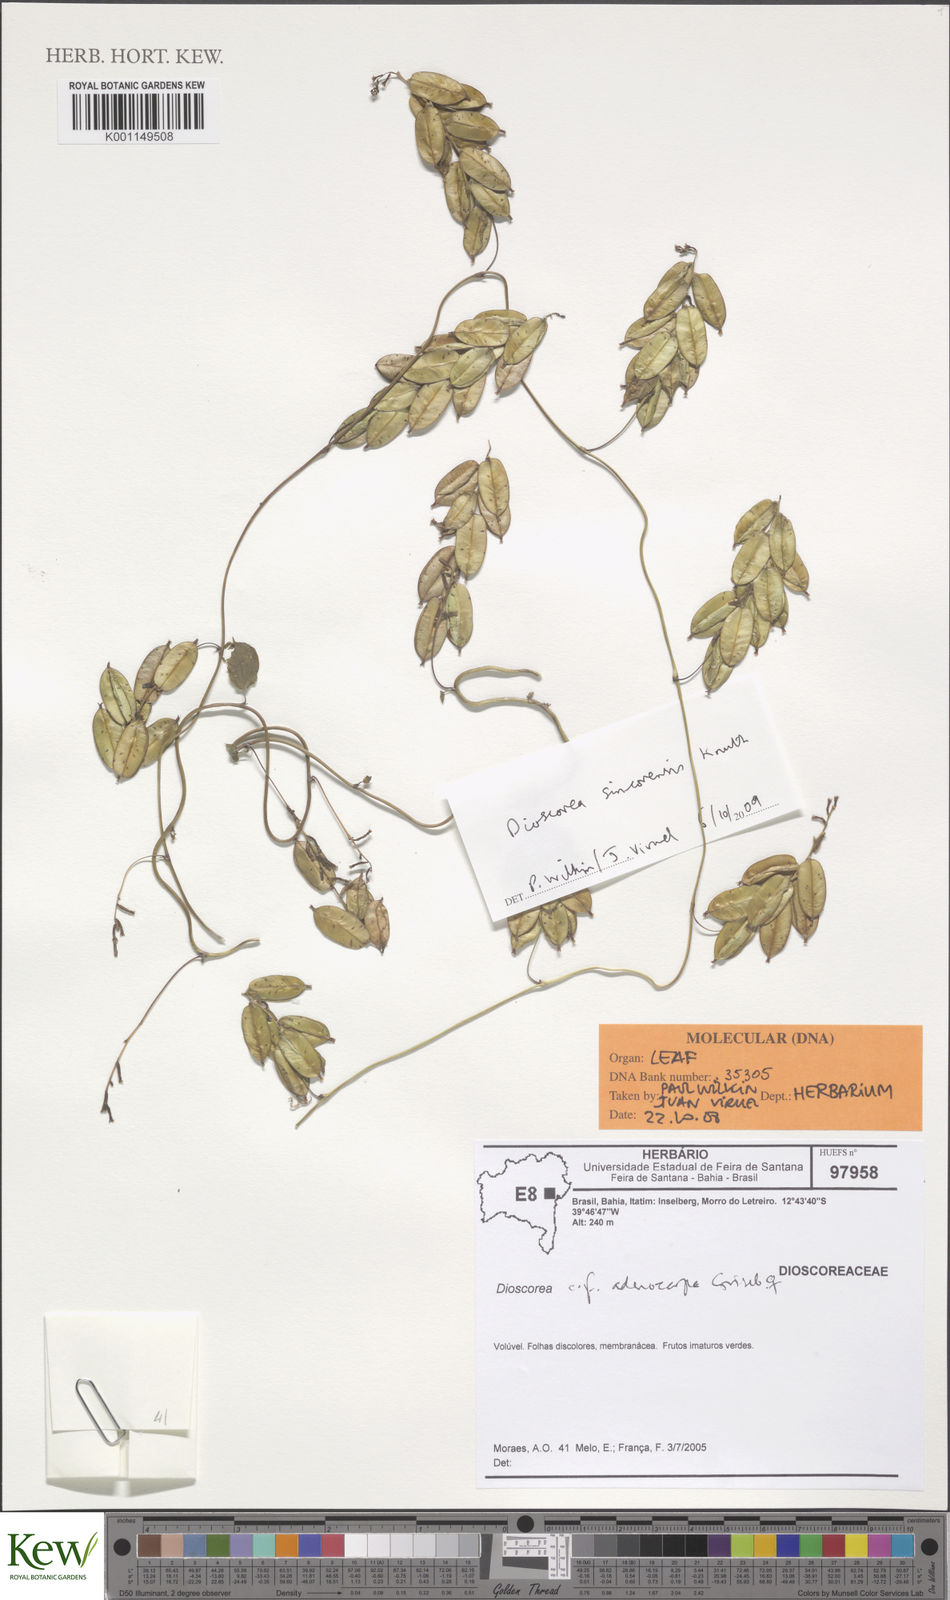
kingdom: Plantae
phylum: Tracheophyta
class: Liliopsida
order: Dioscoreales
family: Dioscoreaceae
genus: Dioscorea
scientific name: Dioscorea sincorensis
